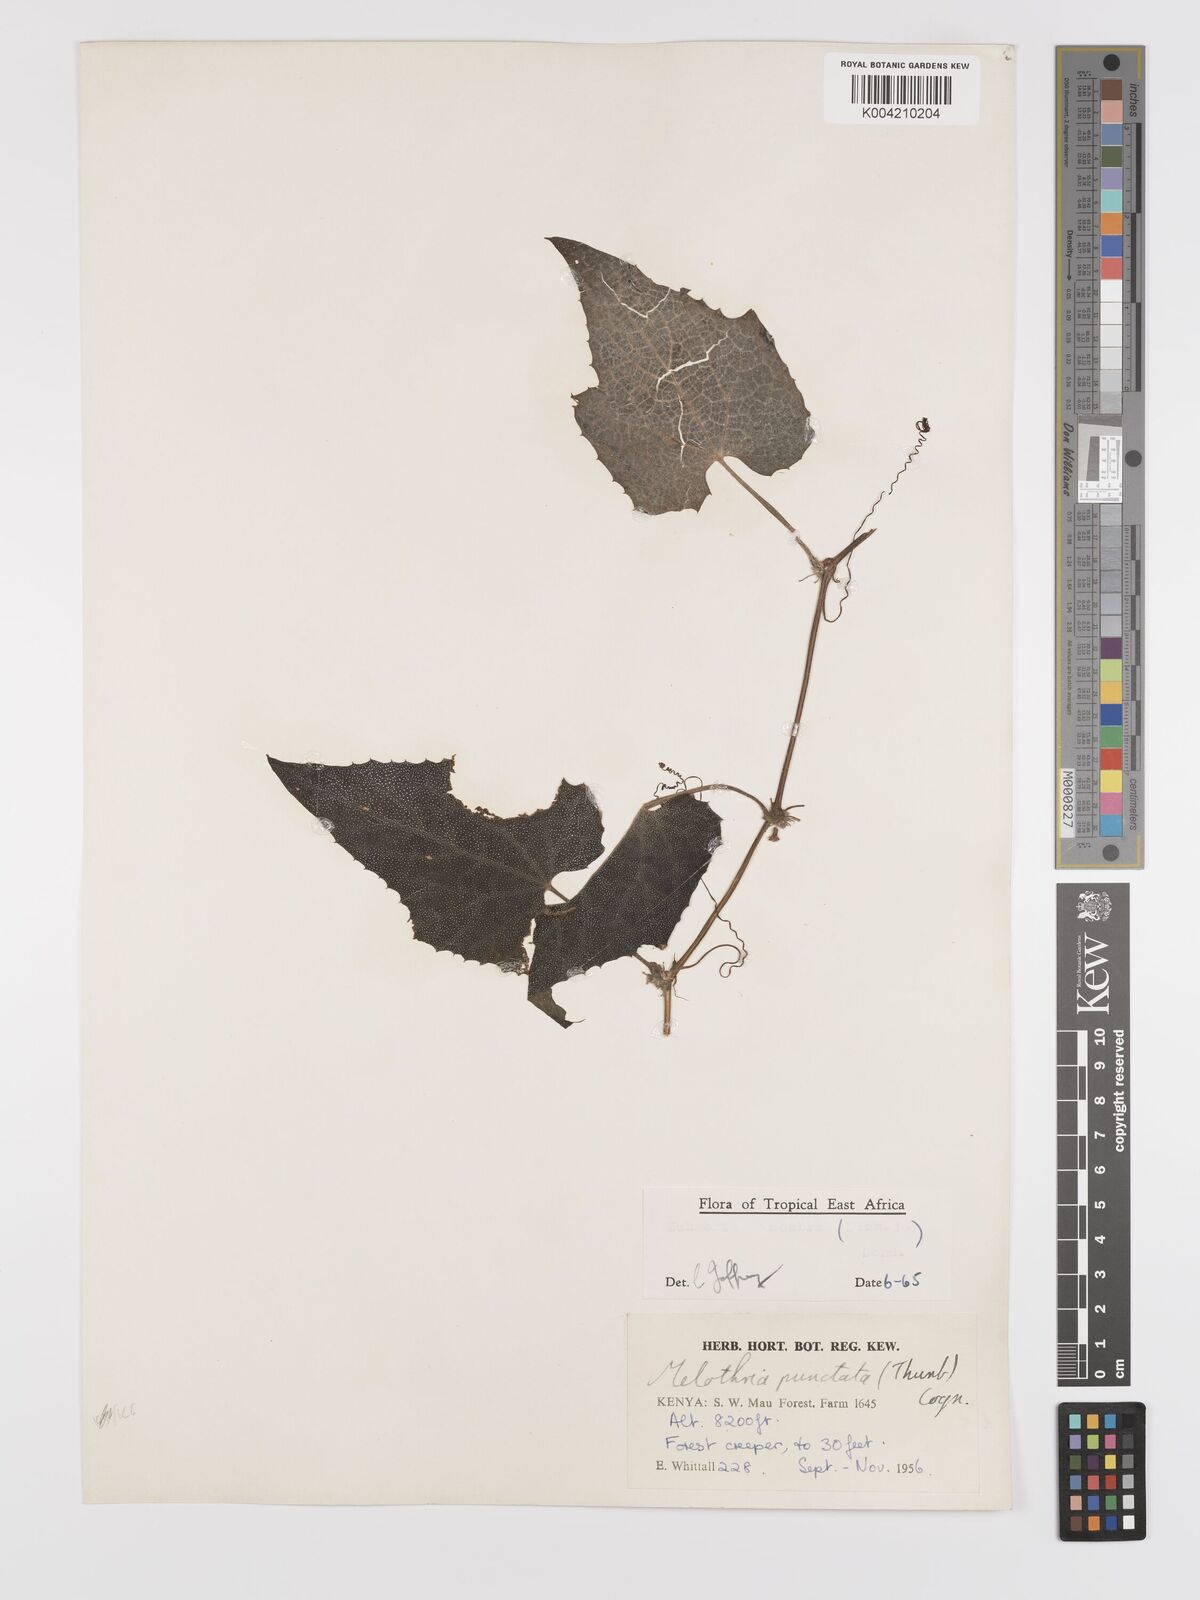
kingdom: Plantae
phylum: Tracheophyta
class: Magnoliopsida
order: Cucurbitales
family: Cucurbitaceae
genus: Zehneria
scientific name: Zehneria scabra
